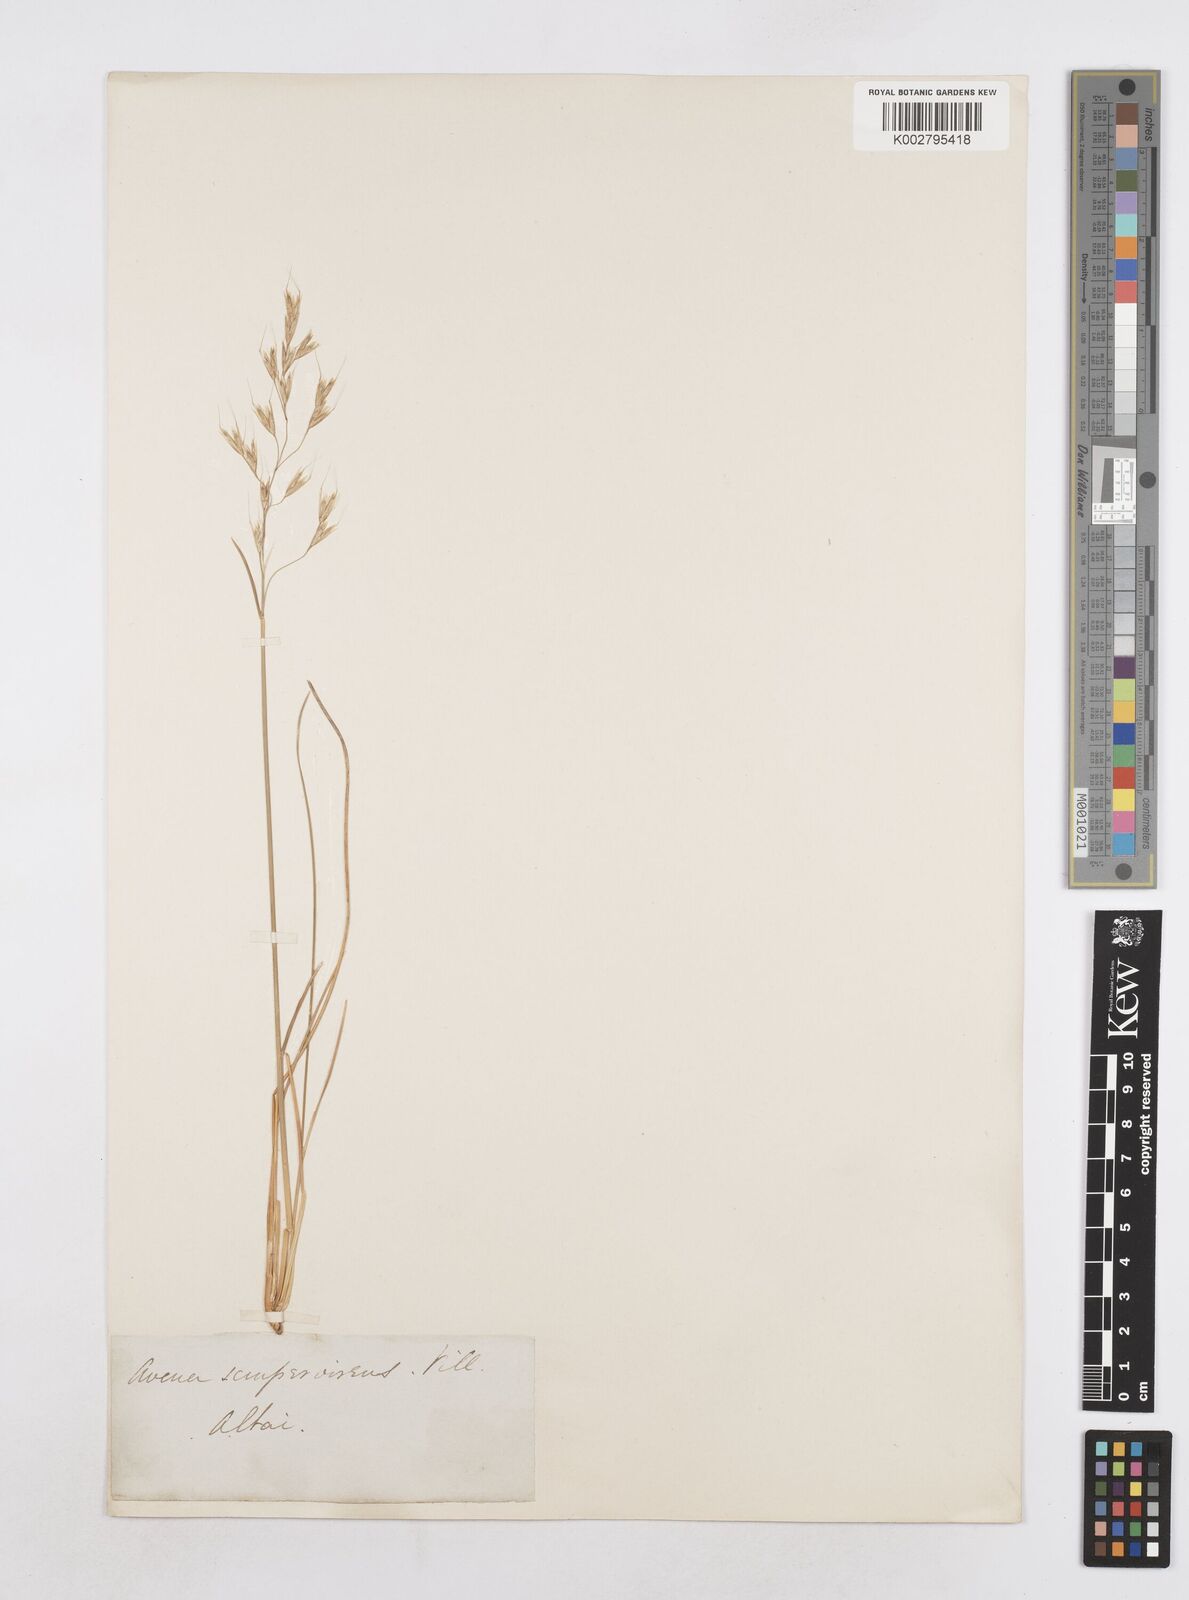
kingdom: Plantae
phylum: Tracheophyta
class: Liliopsida
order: Poales
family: Poaceae
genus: Helictotrichon
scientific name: Helictotrichon sempervirens
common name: Blue oat-grass
